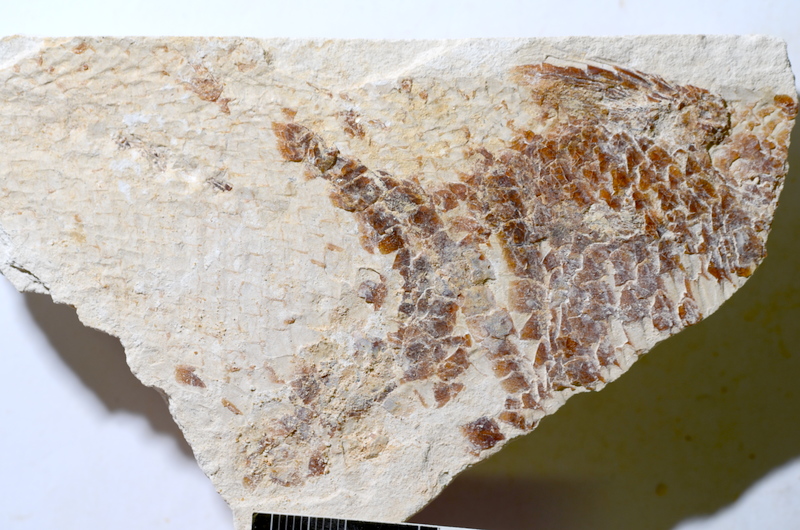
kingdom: Animalia
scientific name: Animalia
